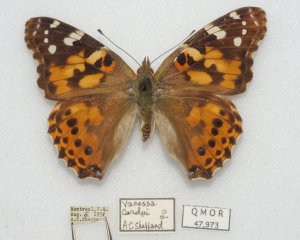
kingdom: Animalia
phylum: Arthropoda
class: Insecta
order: Lepidoptera
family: Nymphalidae
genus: Vanessa
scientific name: Vanessa cardui
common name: Painted Lady
